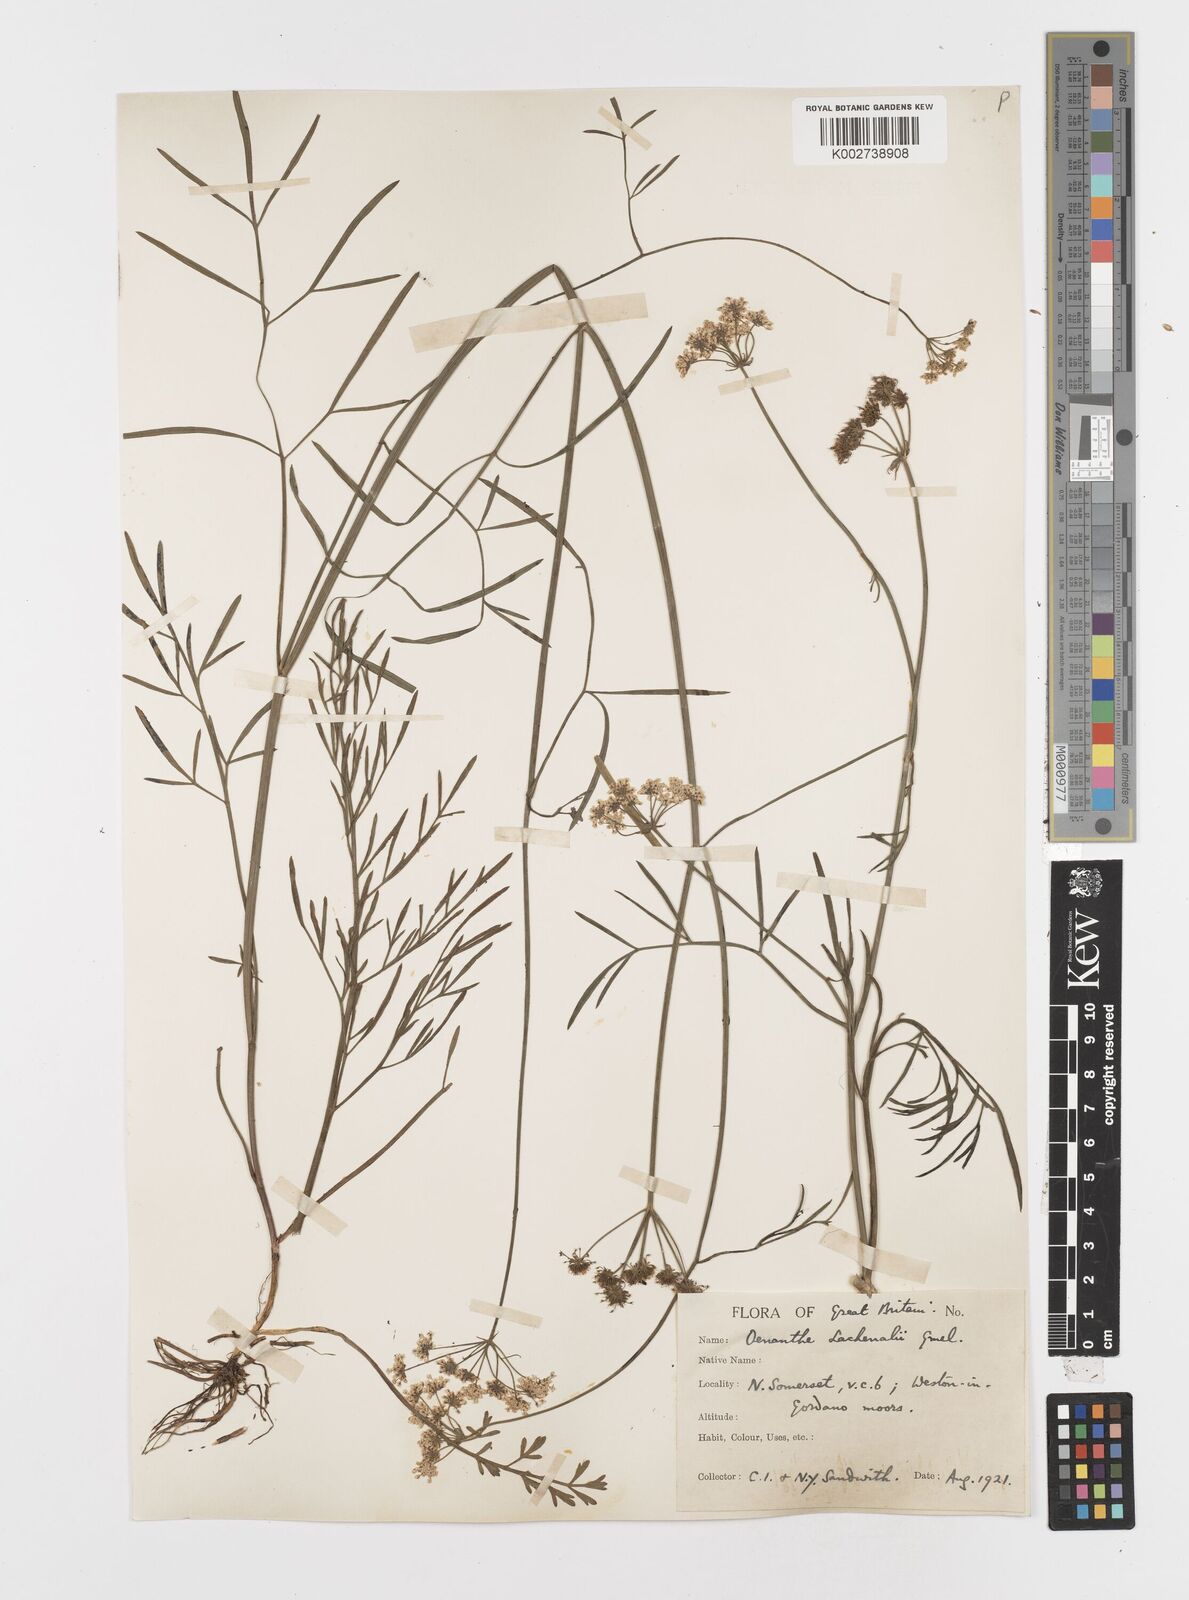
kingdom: Plantae
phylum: Tracheophyta
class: Magnoliopsida
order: Apiales
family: Apiaceae
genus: Oenanthe
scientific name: Oenanthe lachenalii
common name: Parsley water-dropwort
